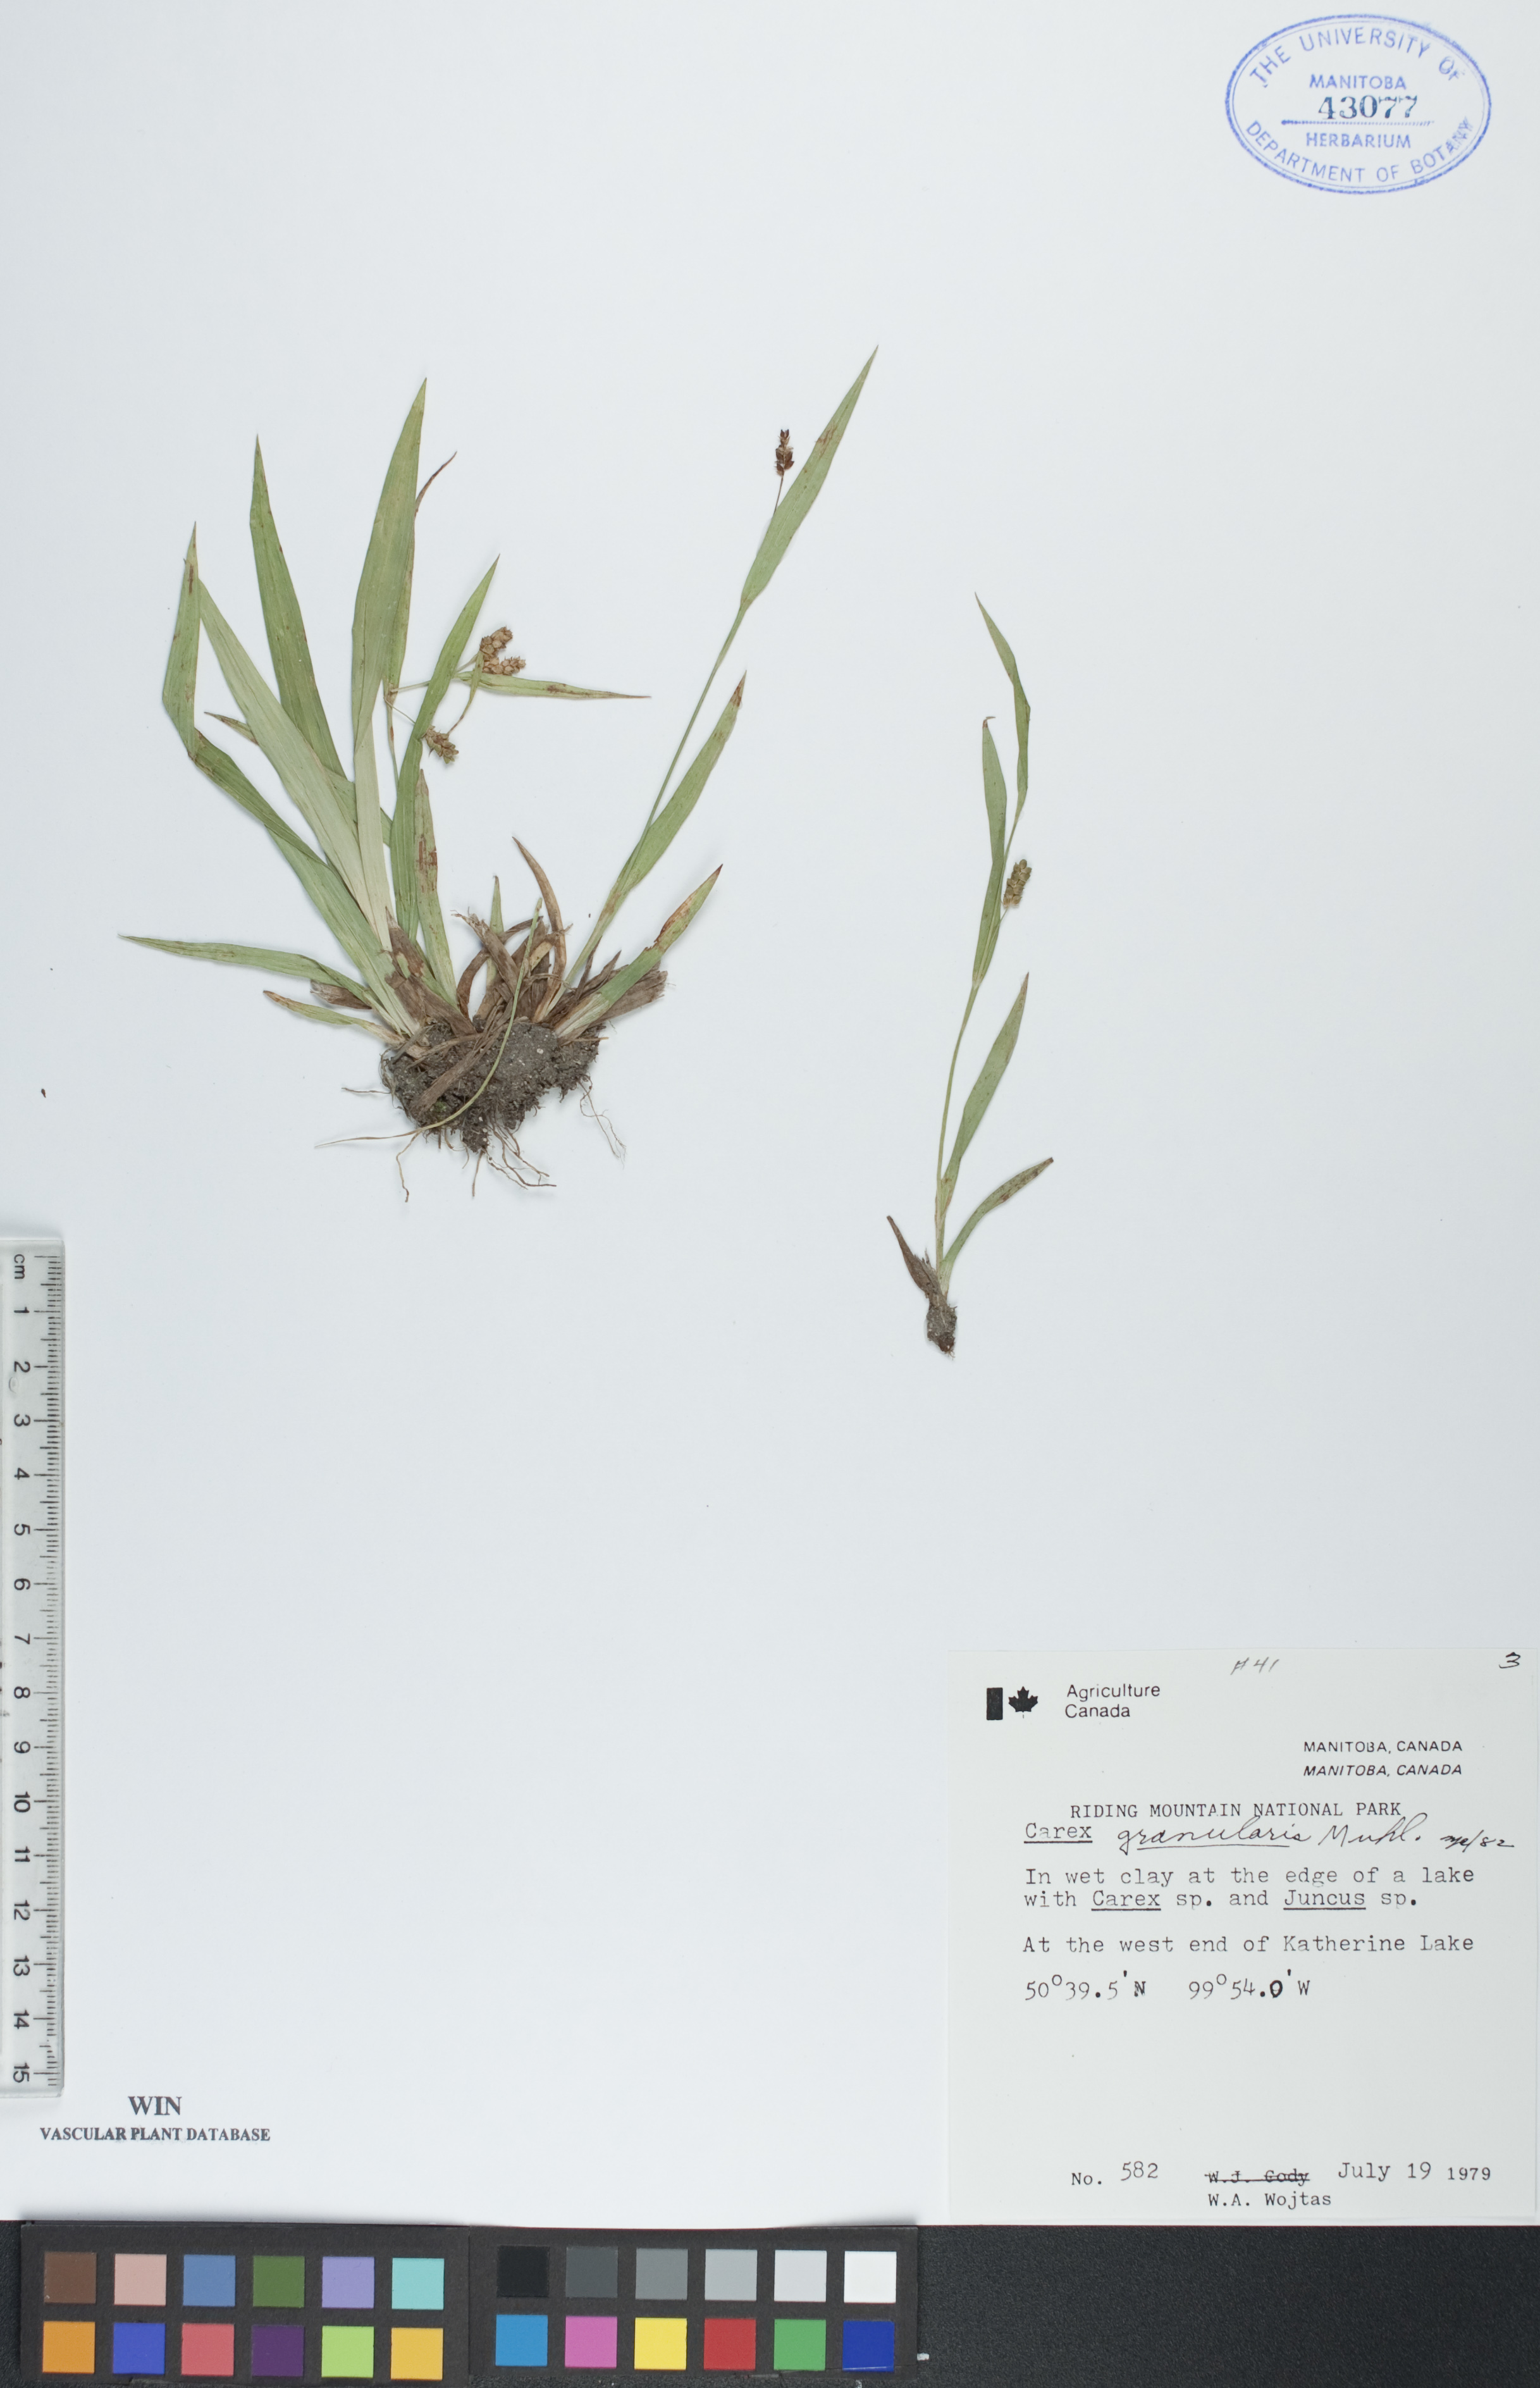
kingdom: Plantae
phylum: Tracheophyta
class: Liliopsida
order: Poales
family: Cyperaceae
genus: Carex
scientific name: Carex granularis
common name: Granular sedge
